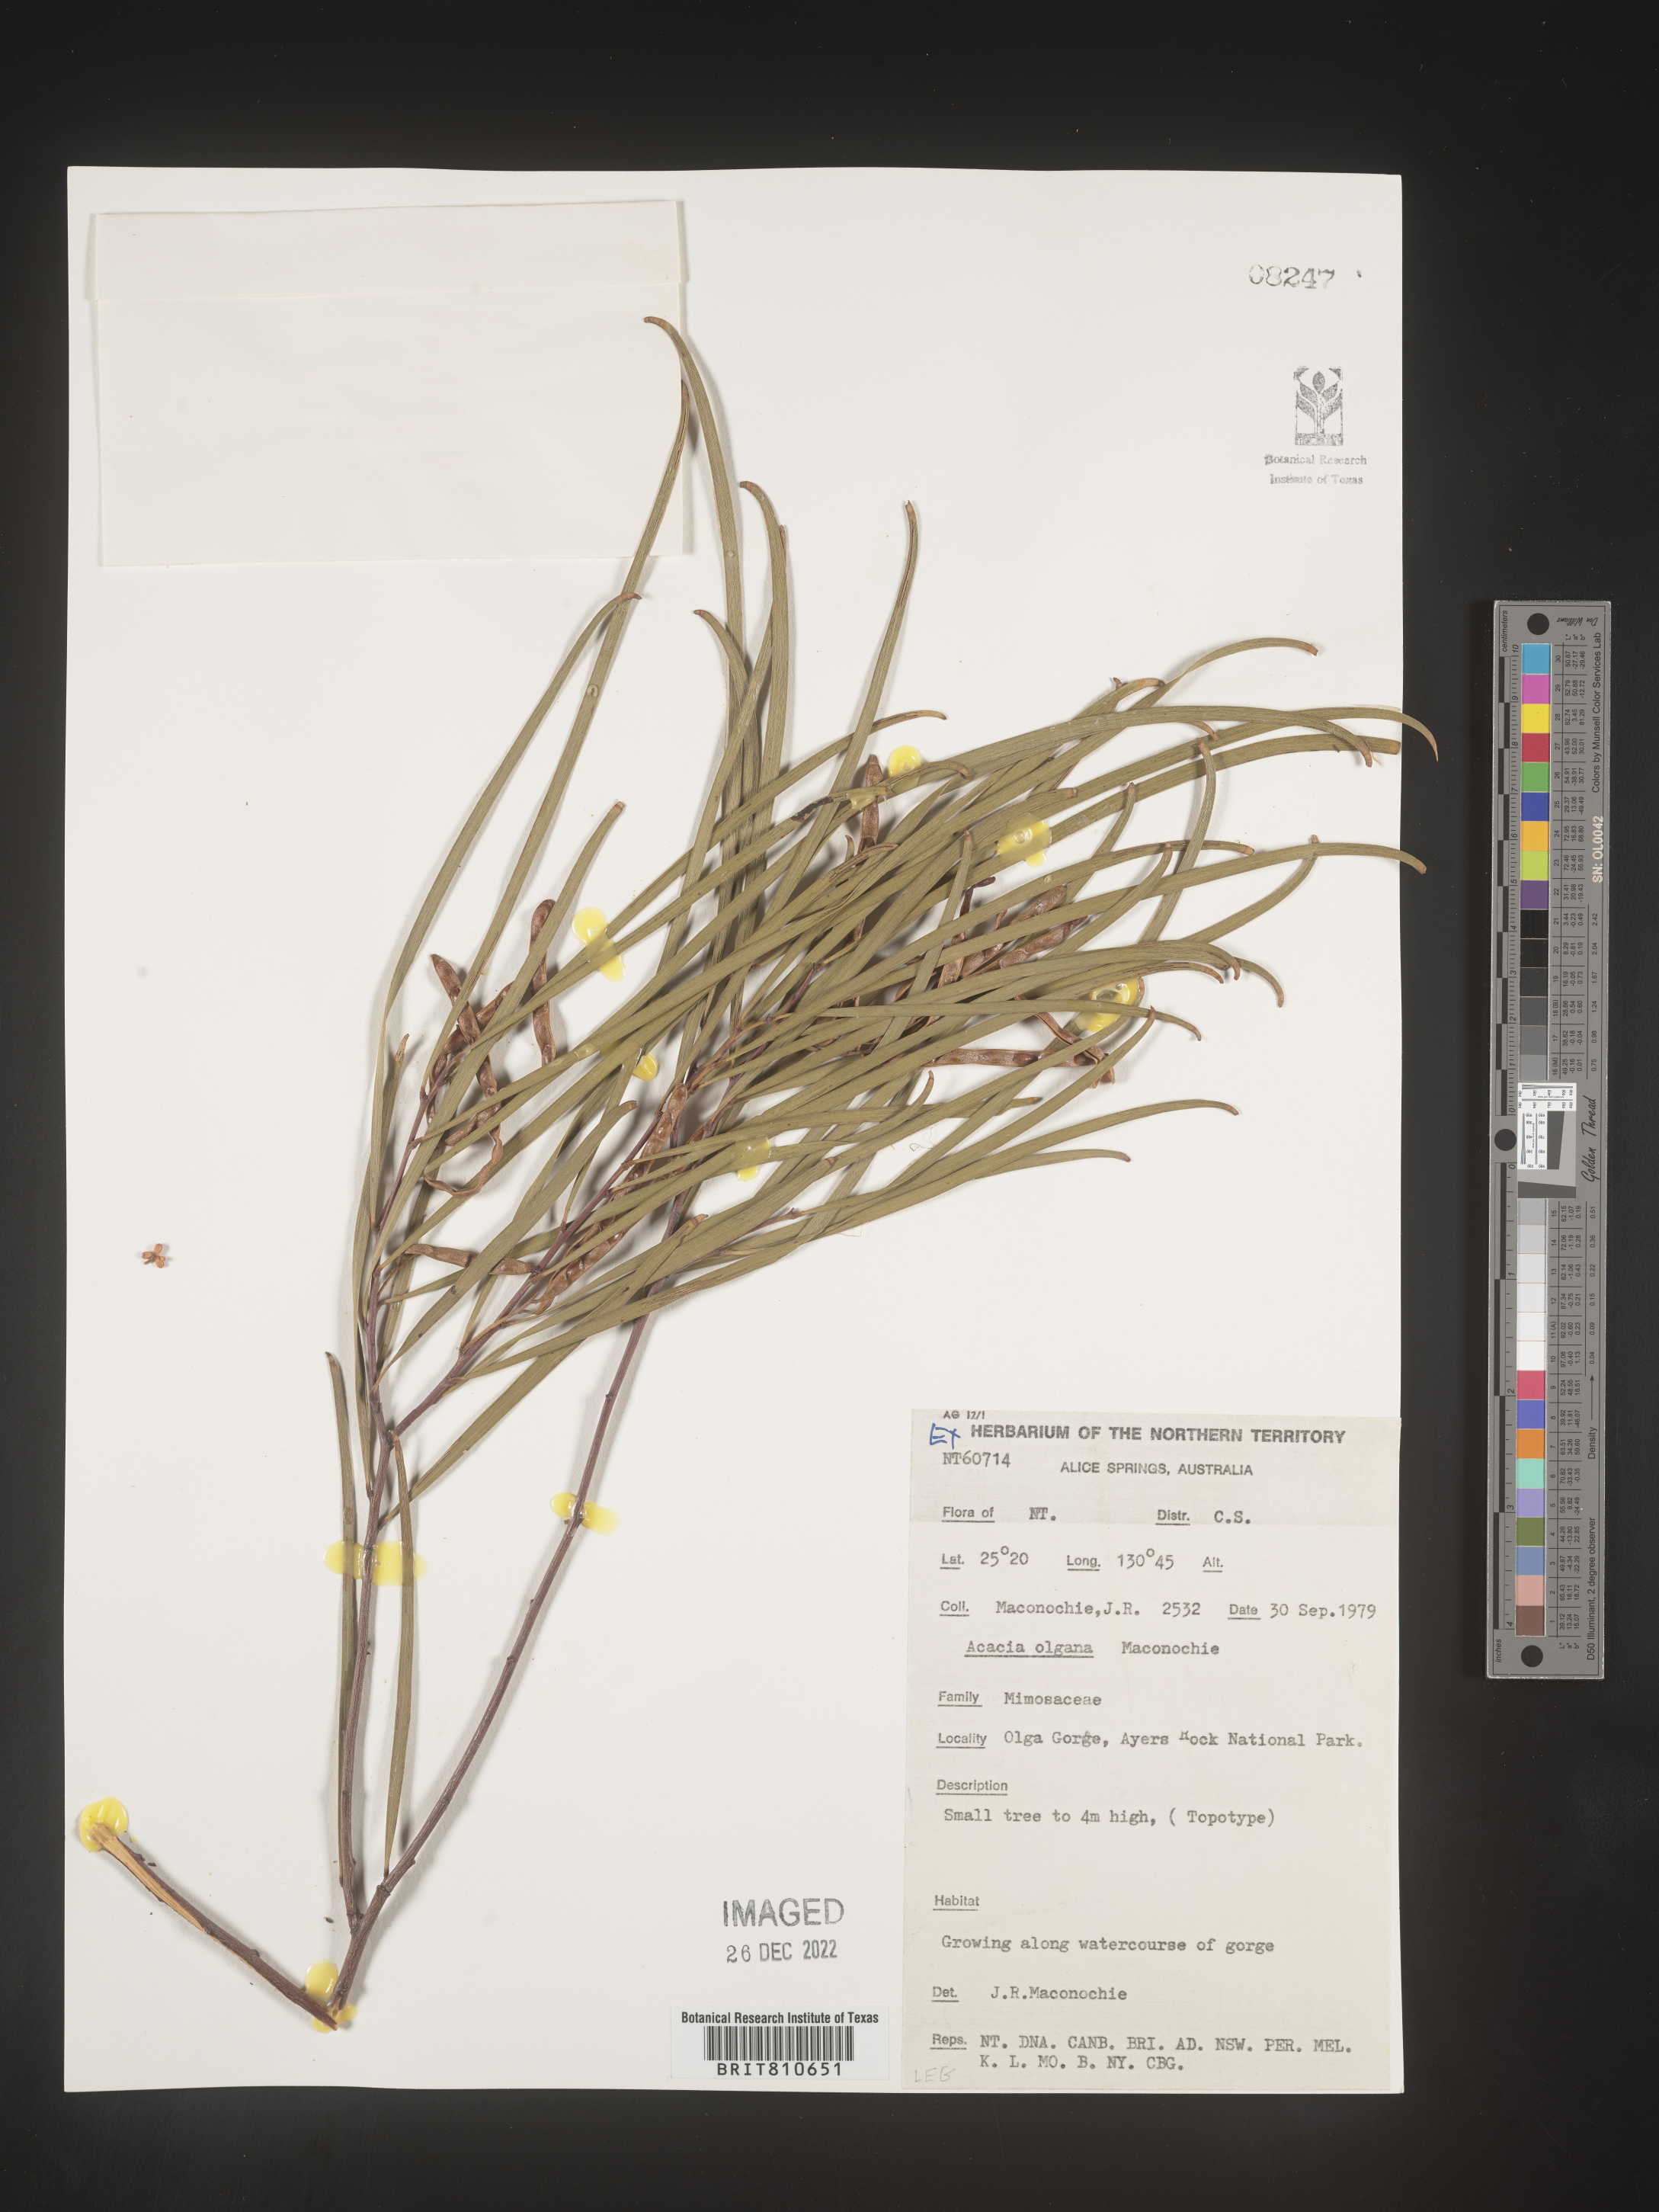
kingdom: Plantae
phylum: Tracheophyta
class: Magnoliopsida
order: Fabales
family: Fabaceae
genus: Acacia
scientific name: Acacia
